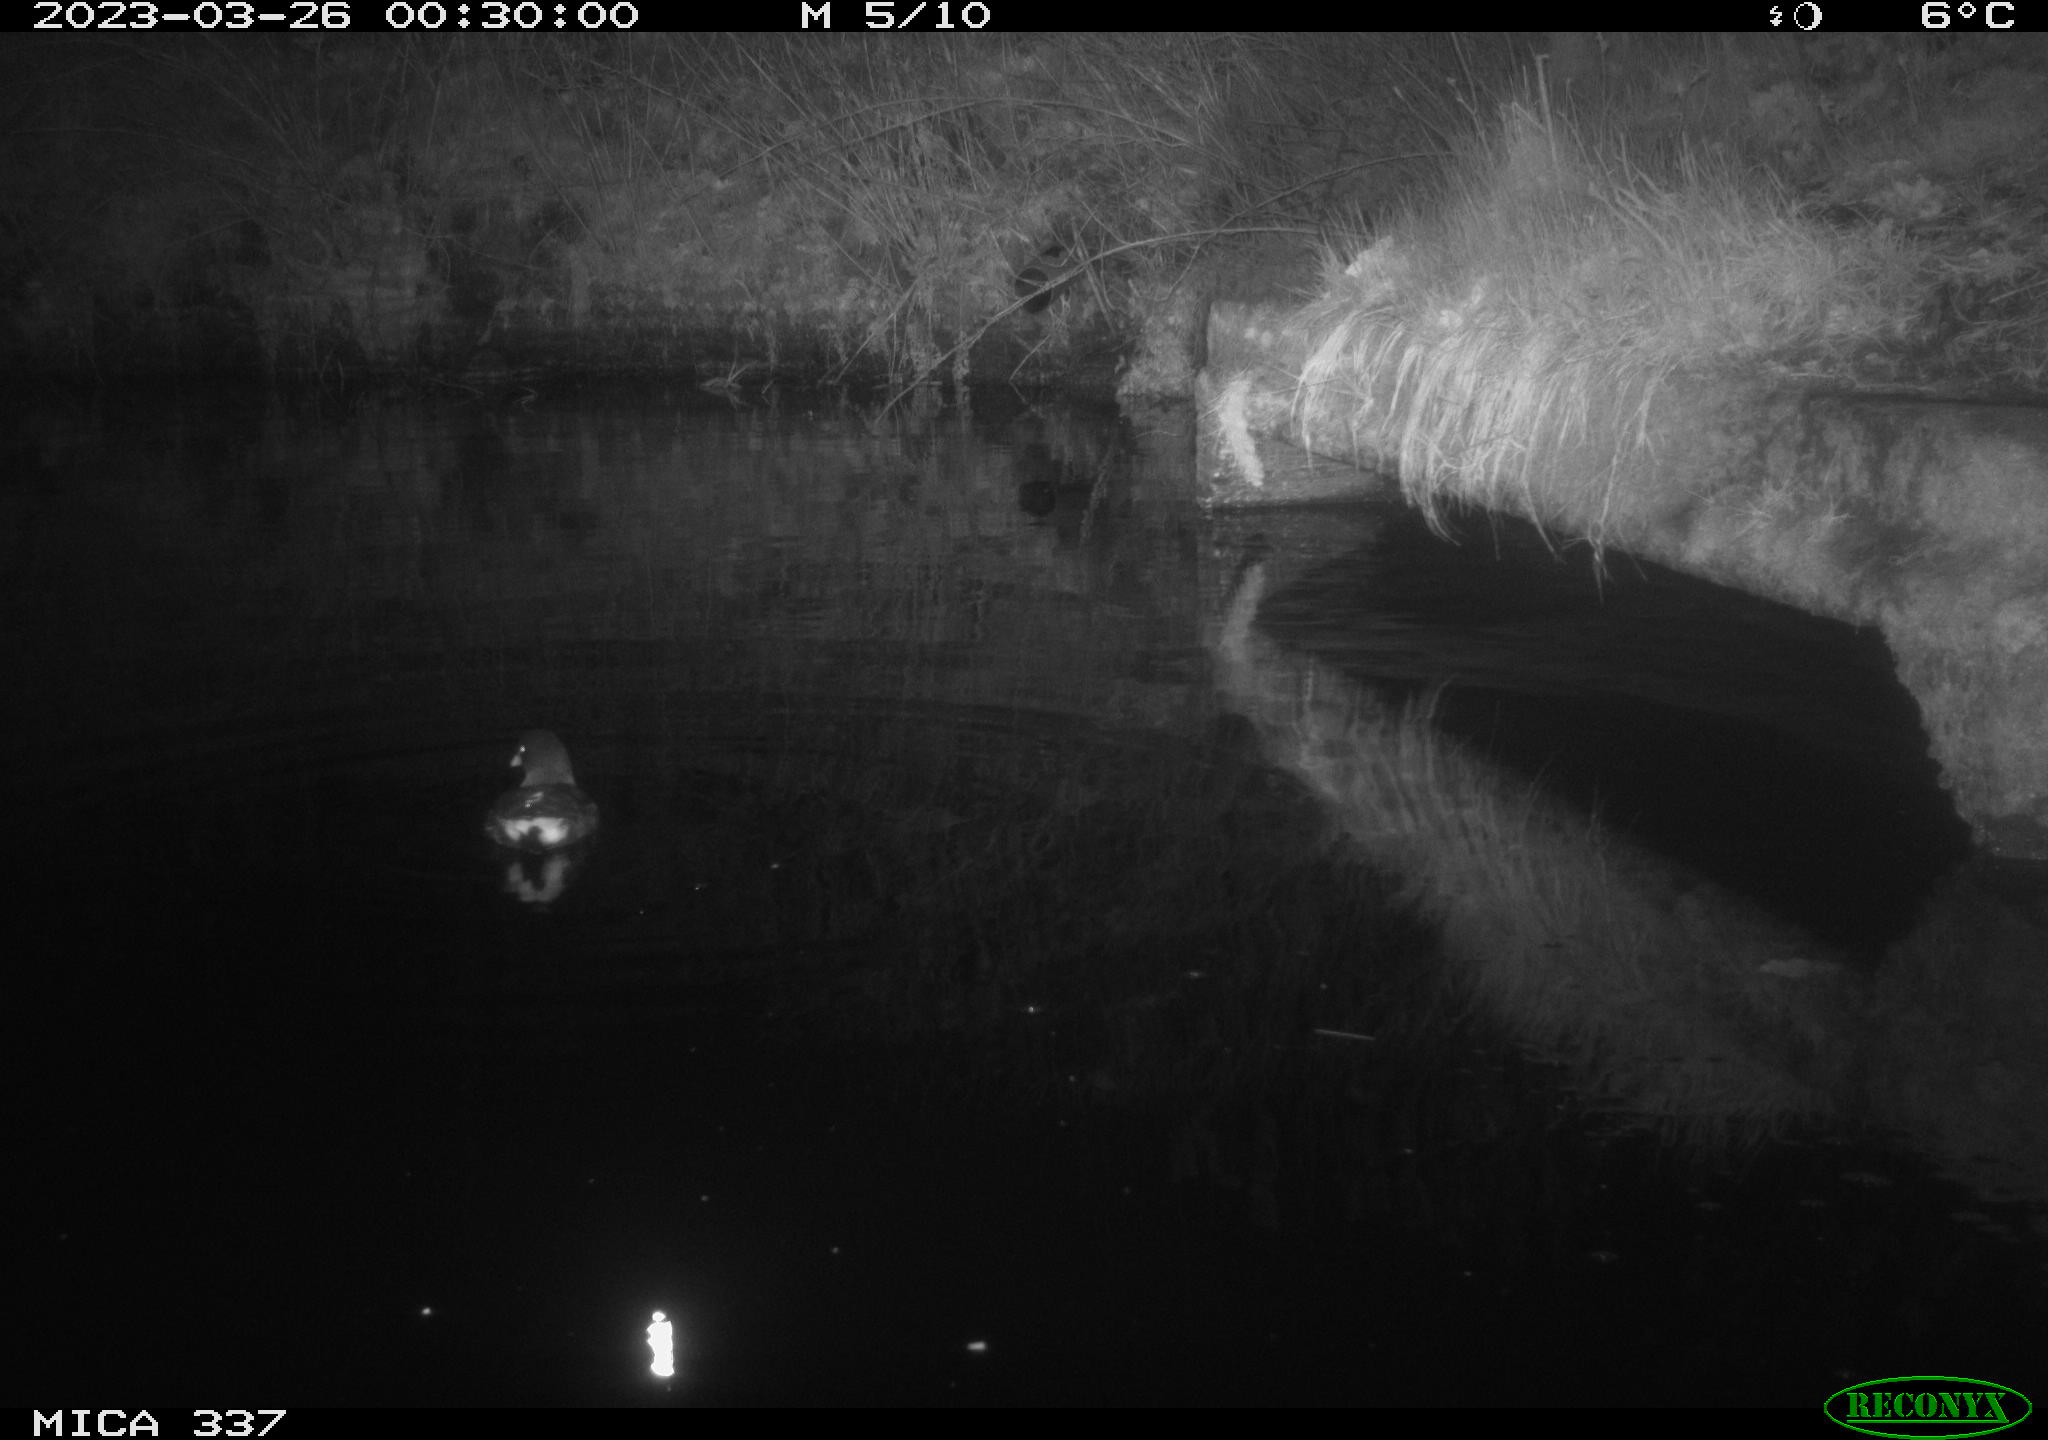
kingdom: Animalia
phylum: Chordata
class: Aves
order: Gruiformes
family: Rallidae
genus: Gallinula
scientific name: Gallinula chloropus
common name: Common moorhen
